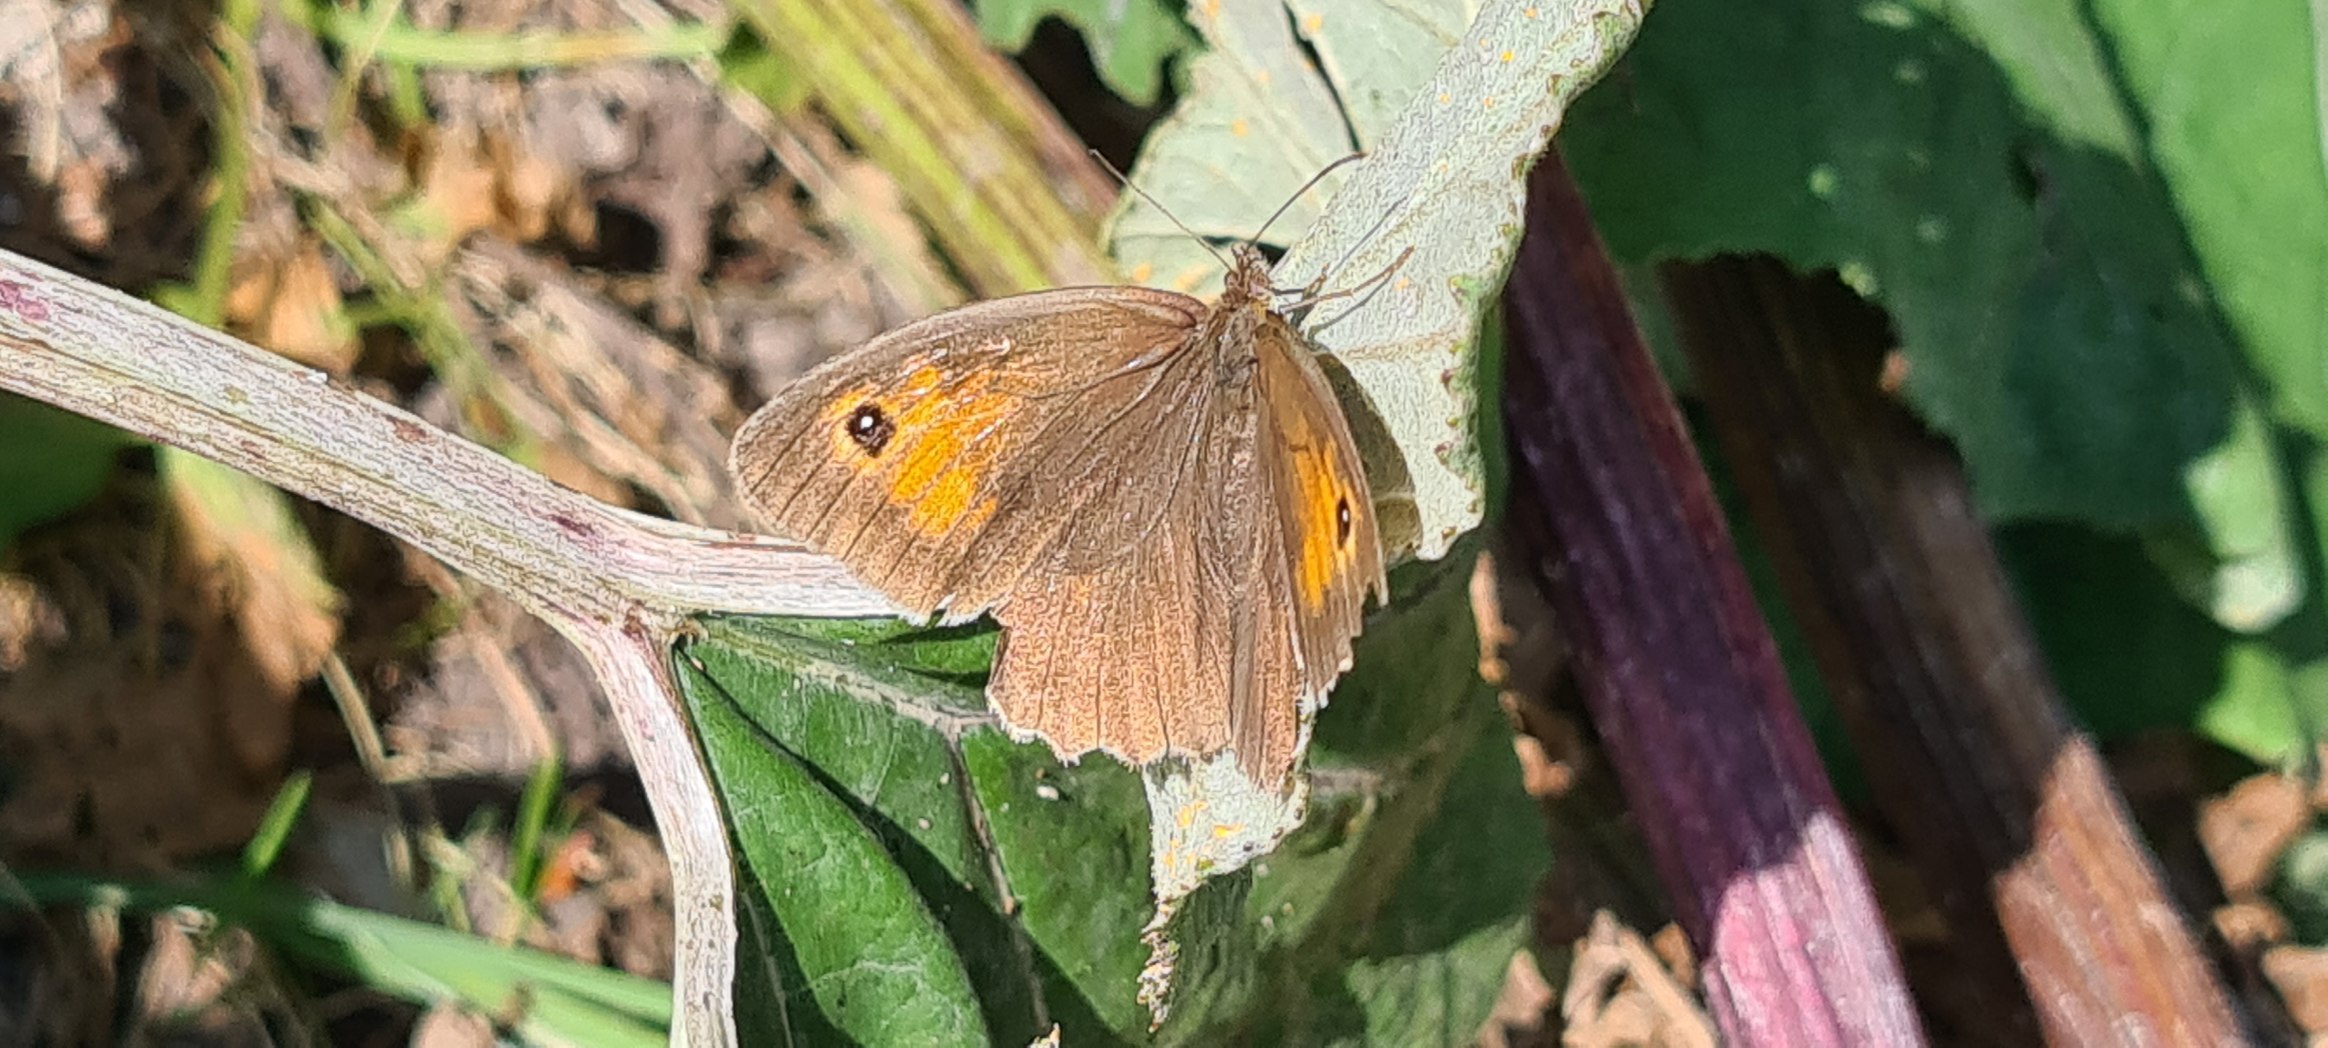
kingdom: Animalia
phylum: Arthropoda
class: Insecta
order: Lepidoptera
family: Nymphalidae
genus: Maniola
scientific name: Maniola jurtina
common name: Græsrandøje
